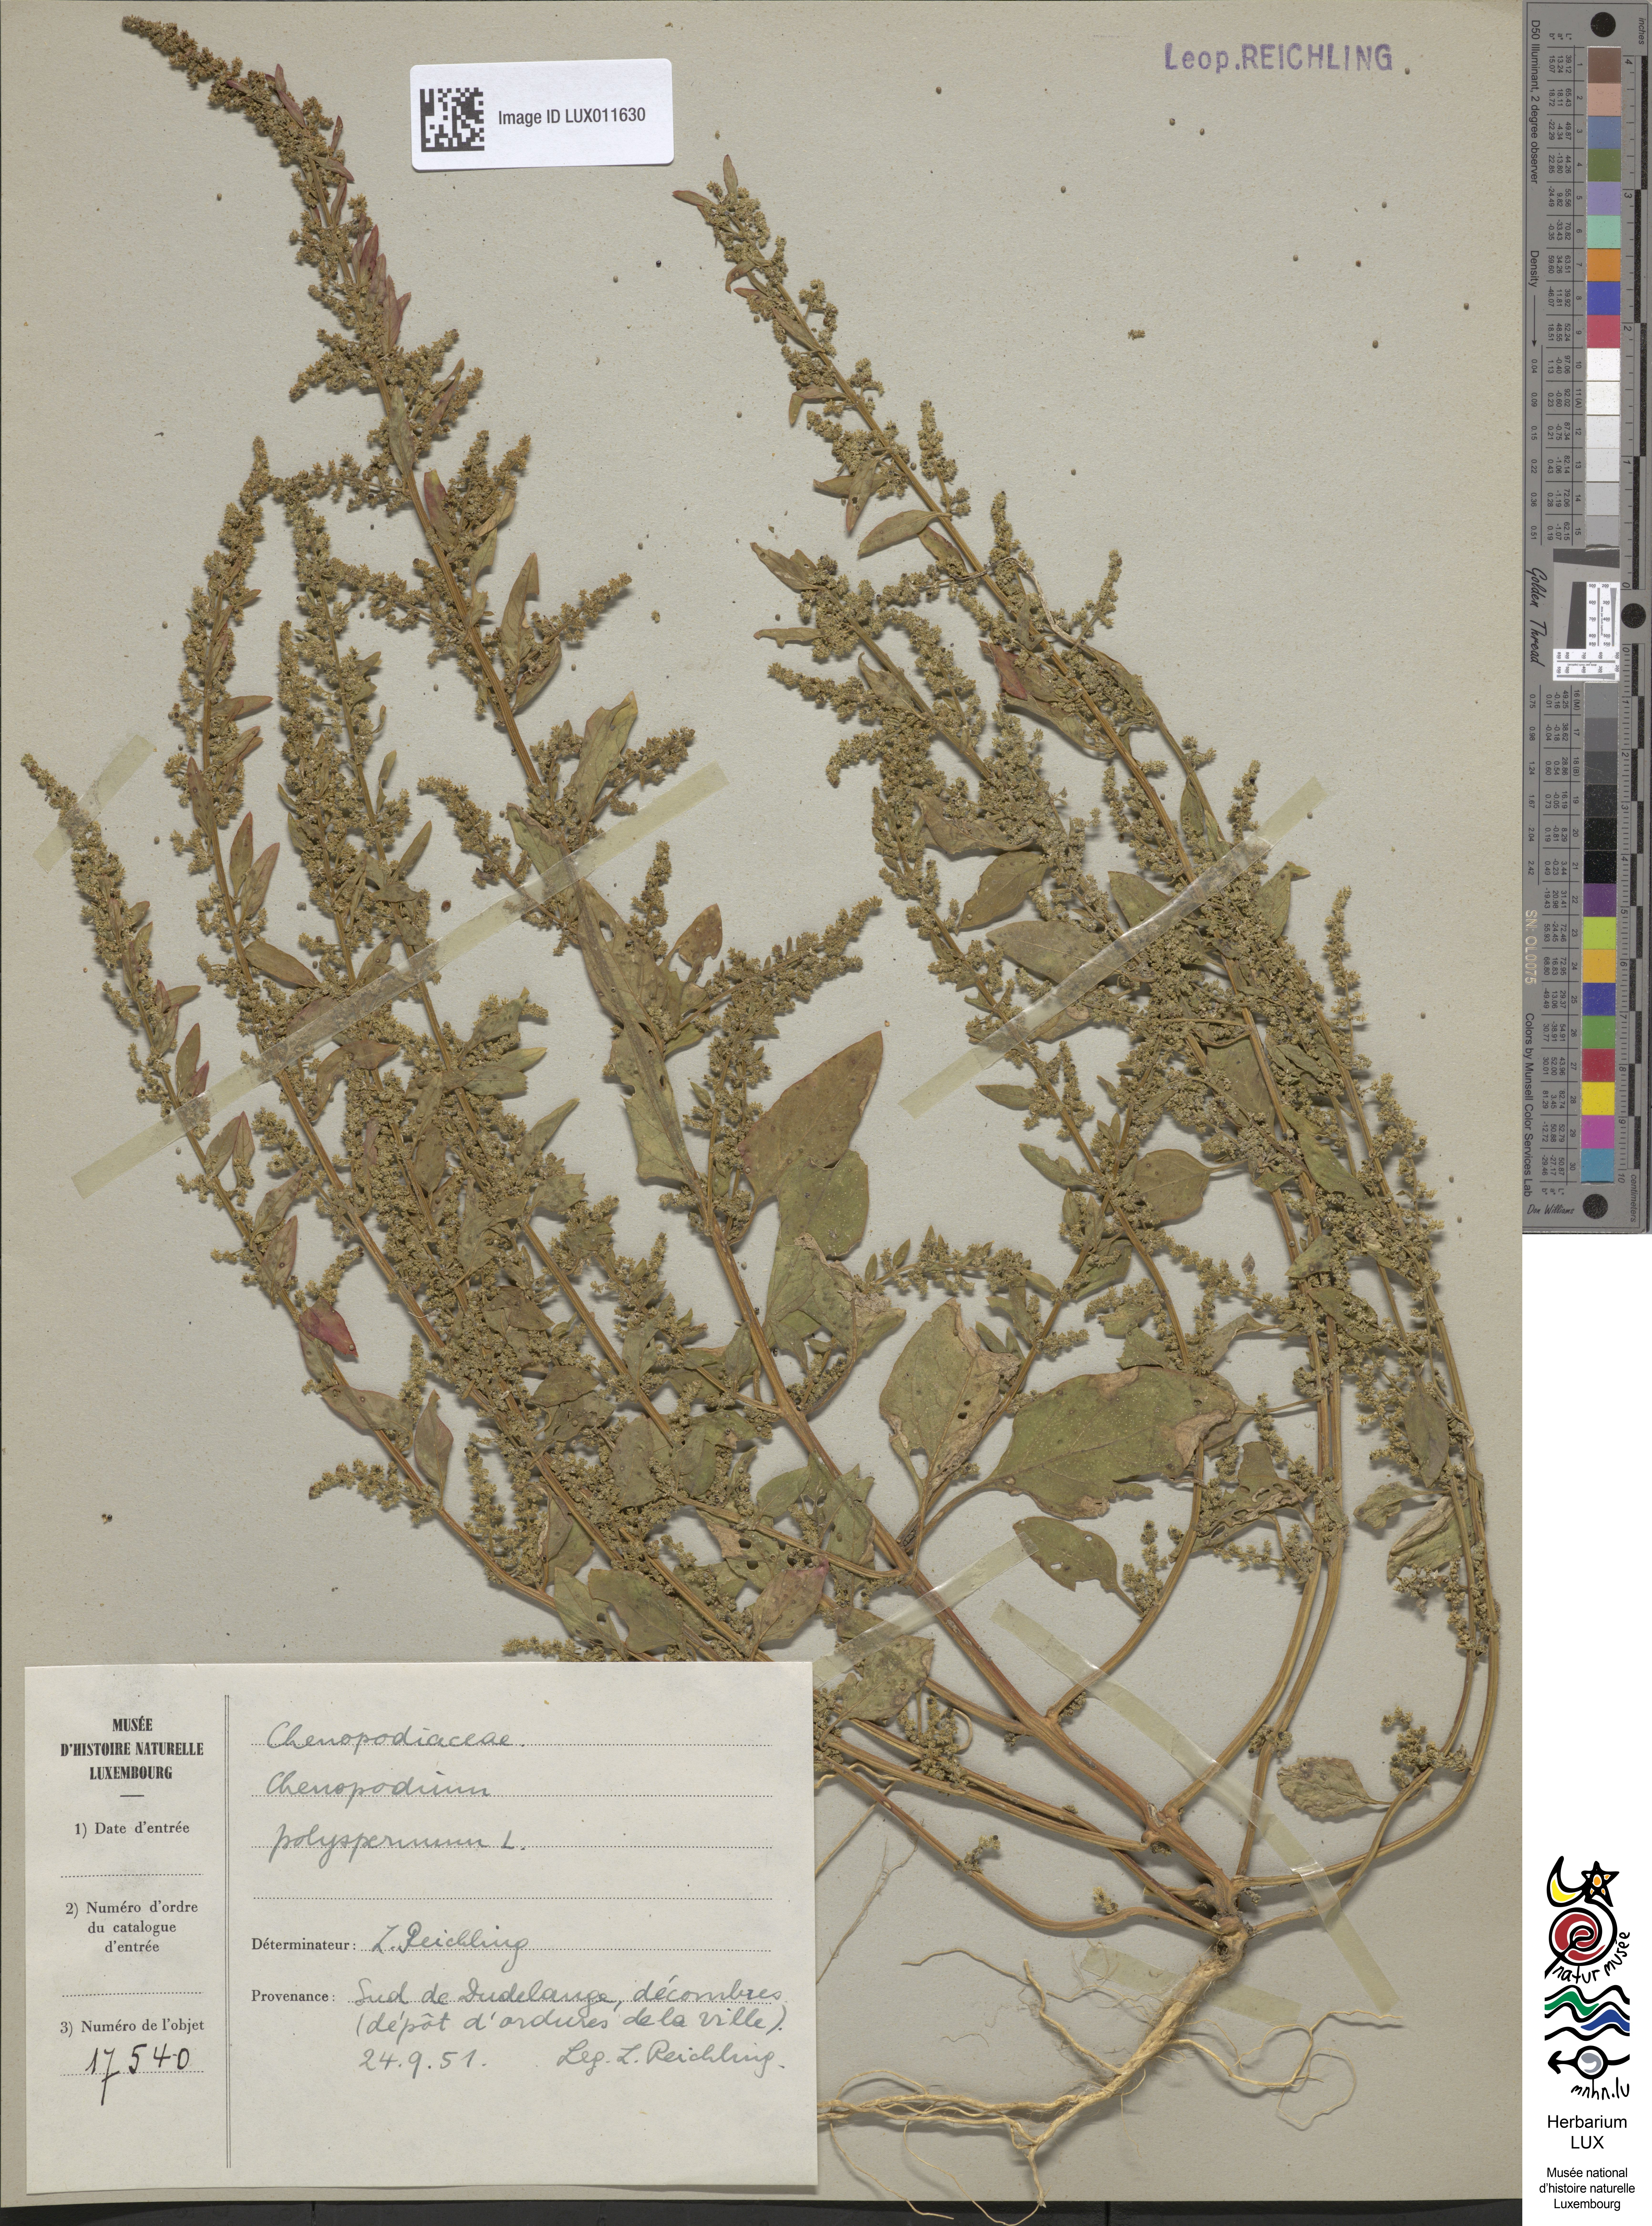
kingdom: Plantae
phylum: Tracheophyta
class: Magnoliopsida
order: Caryophyllales
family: Amaranthaceae
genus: Lipandra
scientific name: Lipandra polysperma
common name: Many-seed goosefoot
